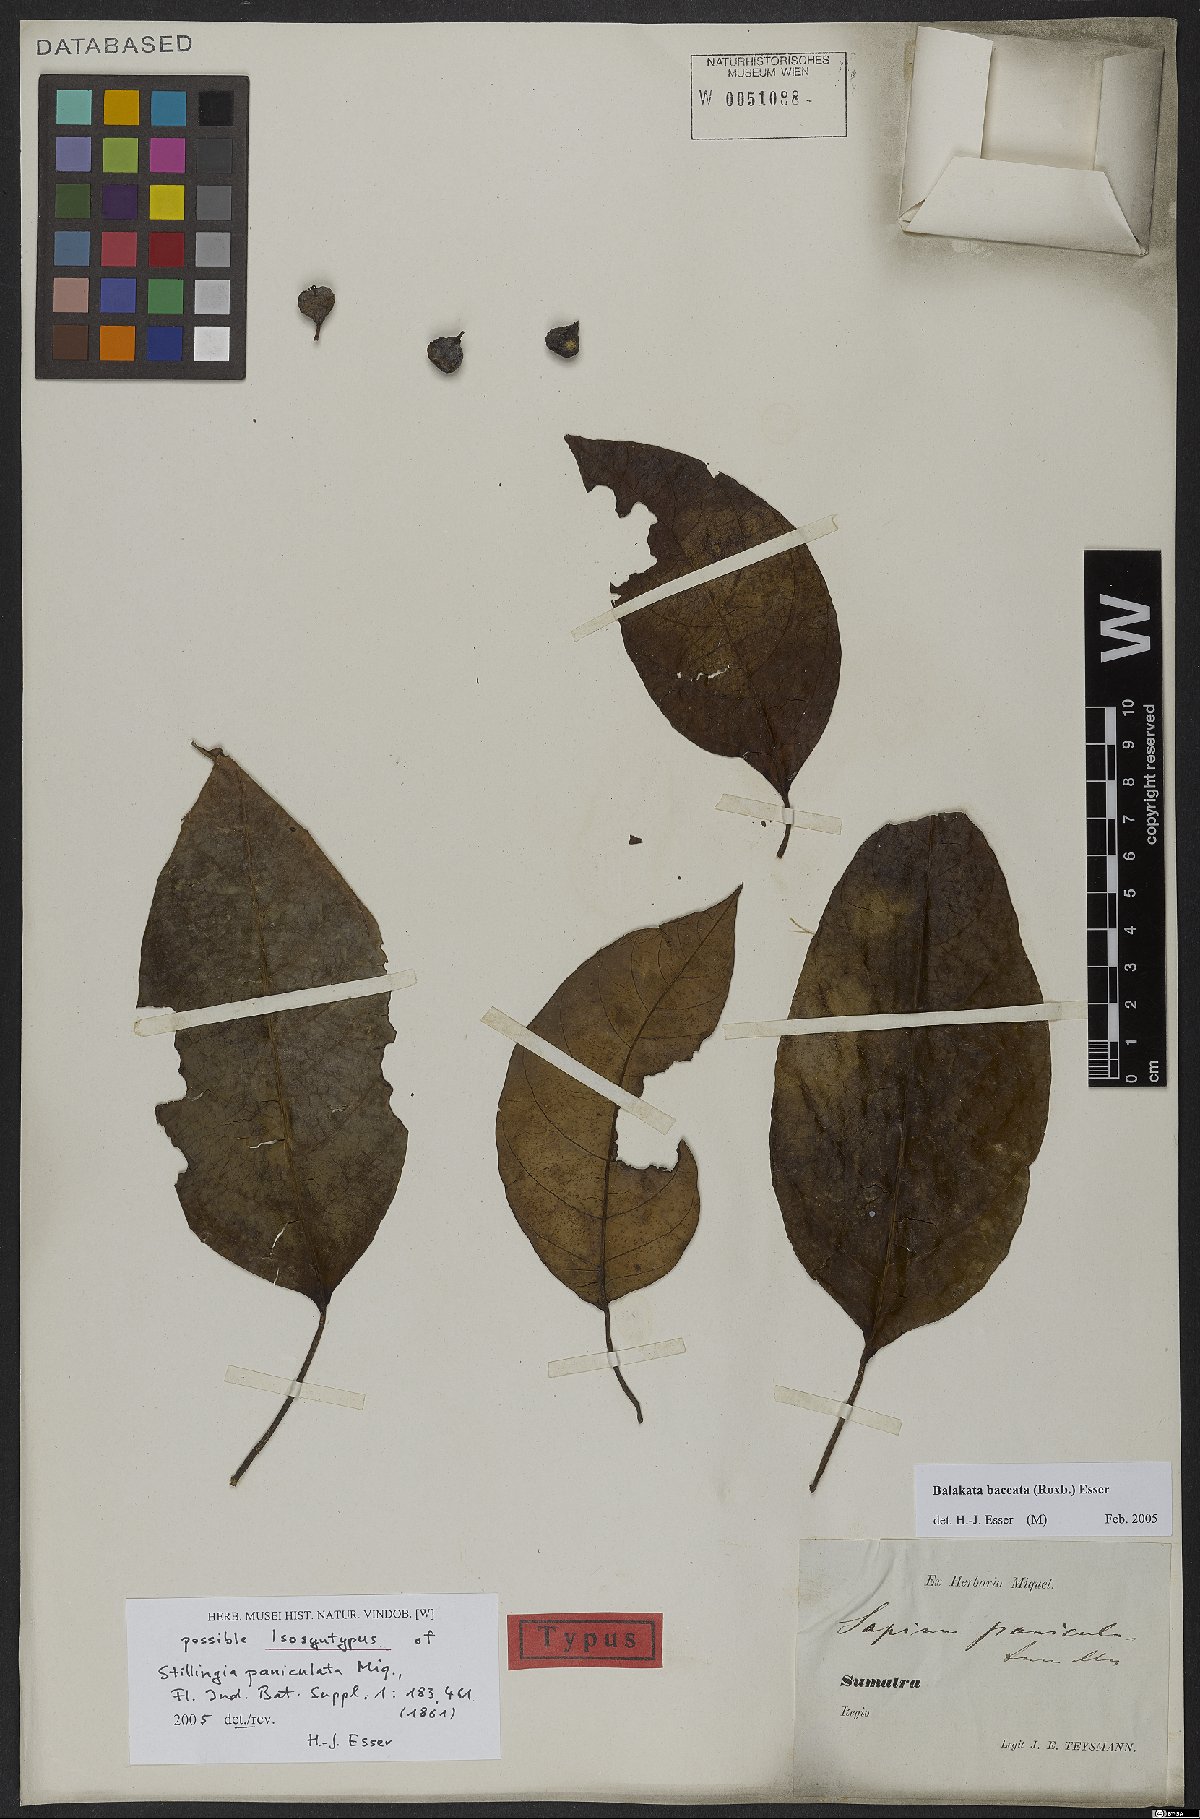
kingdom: Plantae
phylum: Tracheophyta
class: Magnoliopsida
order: Malpighiales
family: Euphorbiaceae
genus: Balakata
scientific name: Balakata baccata
